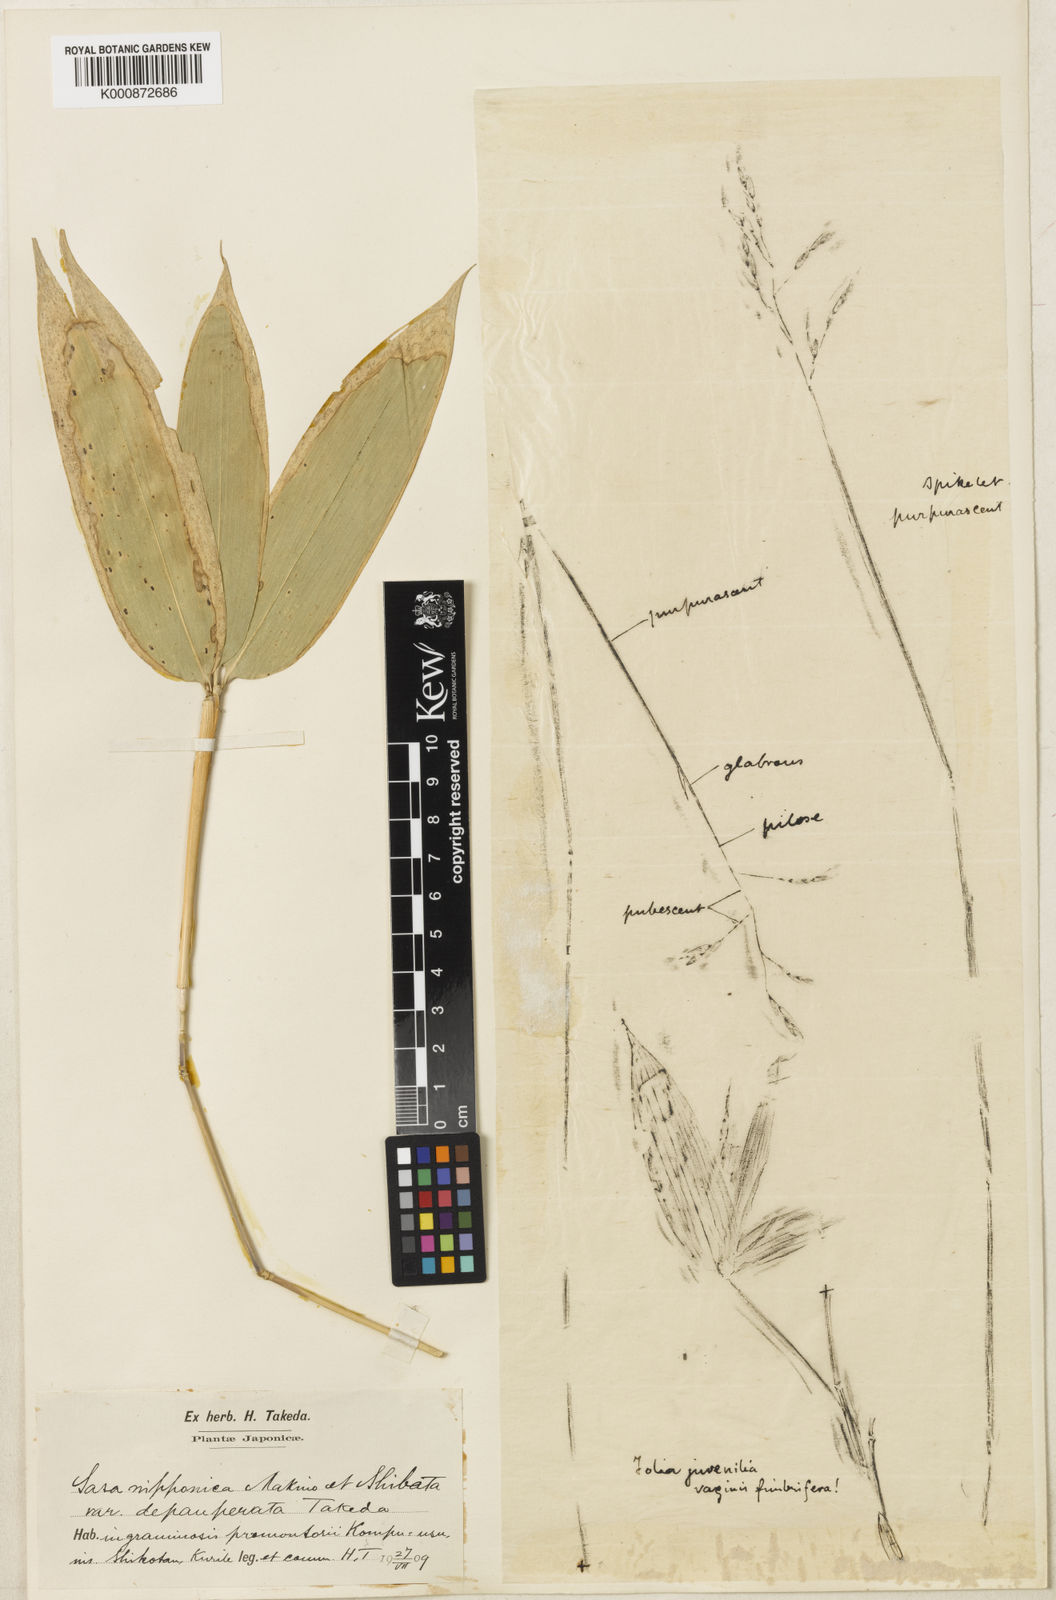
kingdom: Plantae
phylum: Tracheophyta
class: Liliopsida
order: Poales
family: Poaceae
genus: Sasa
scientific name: Sasa nipponica
